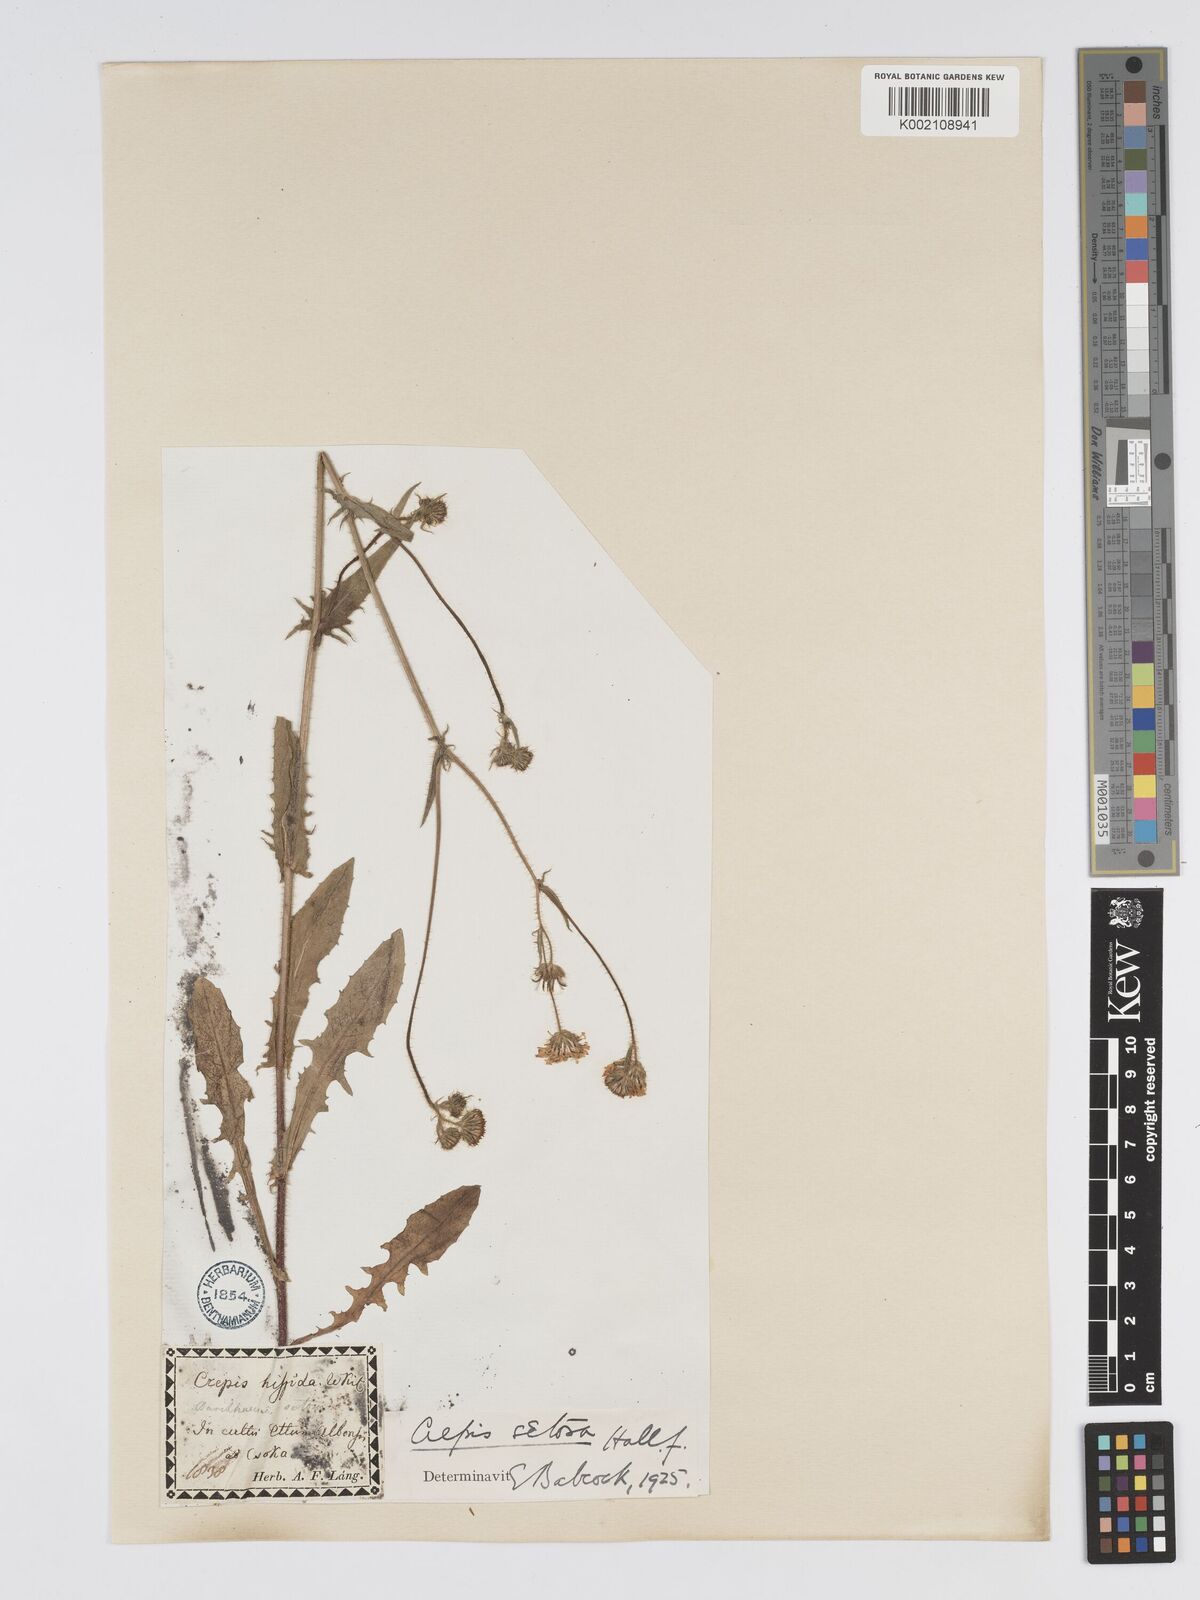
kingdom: Plantae
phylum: Tracheophyta
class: Magnoliopsida
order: Asterales
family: Asteraceae
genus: Crepis
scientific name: Crepis setosa
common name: Bristly hawk's-beard
